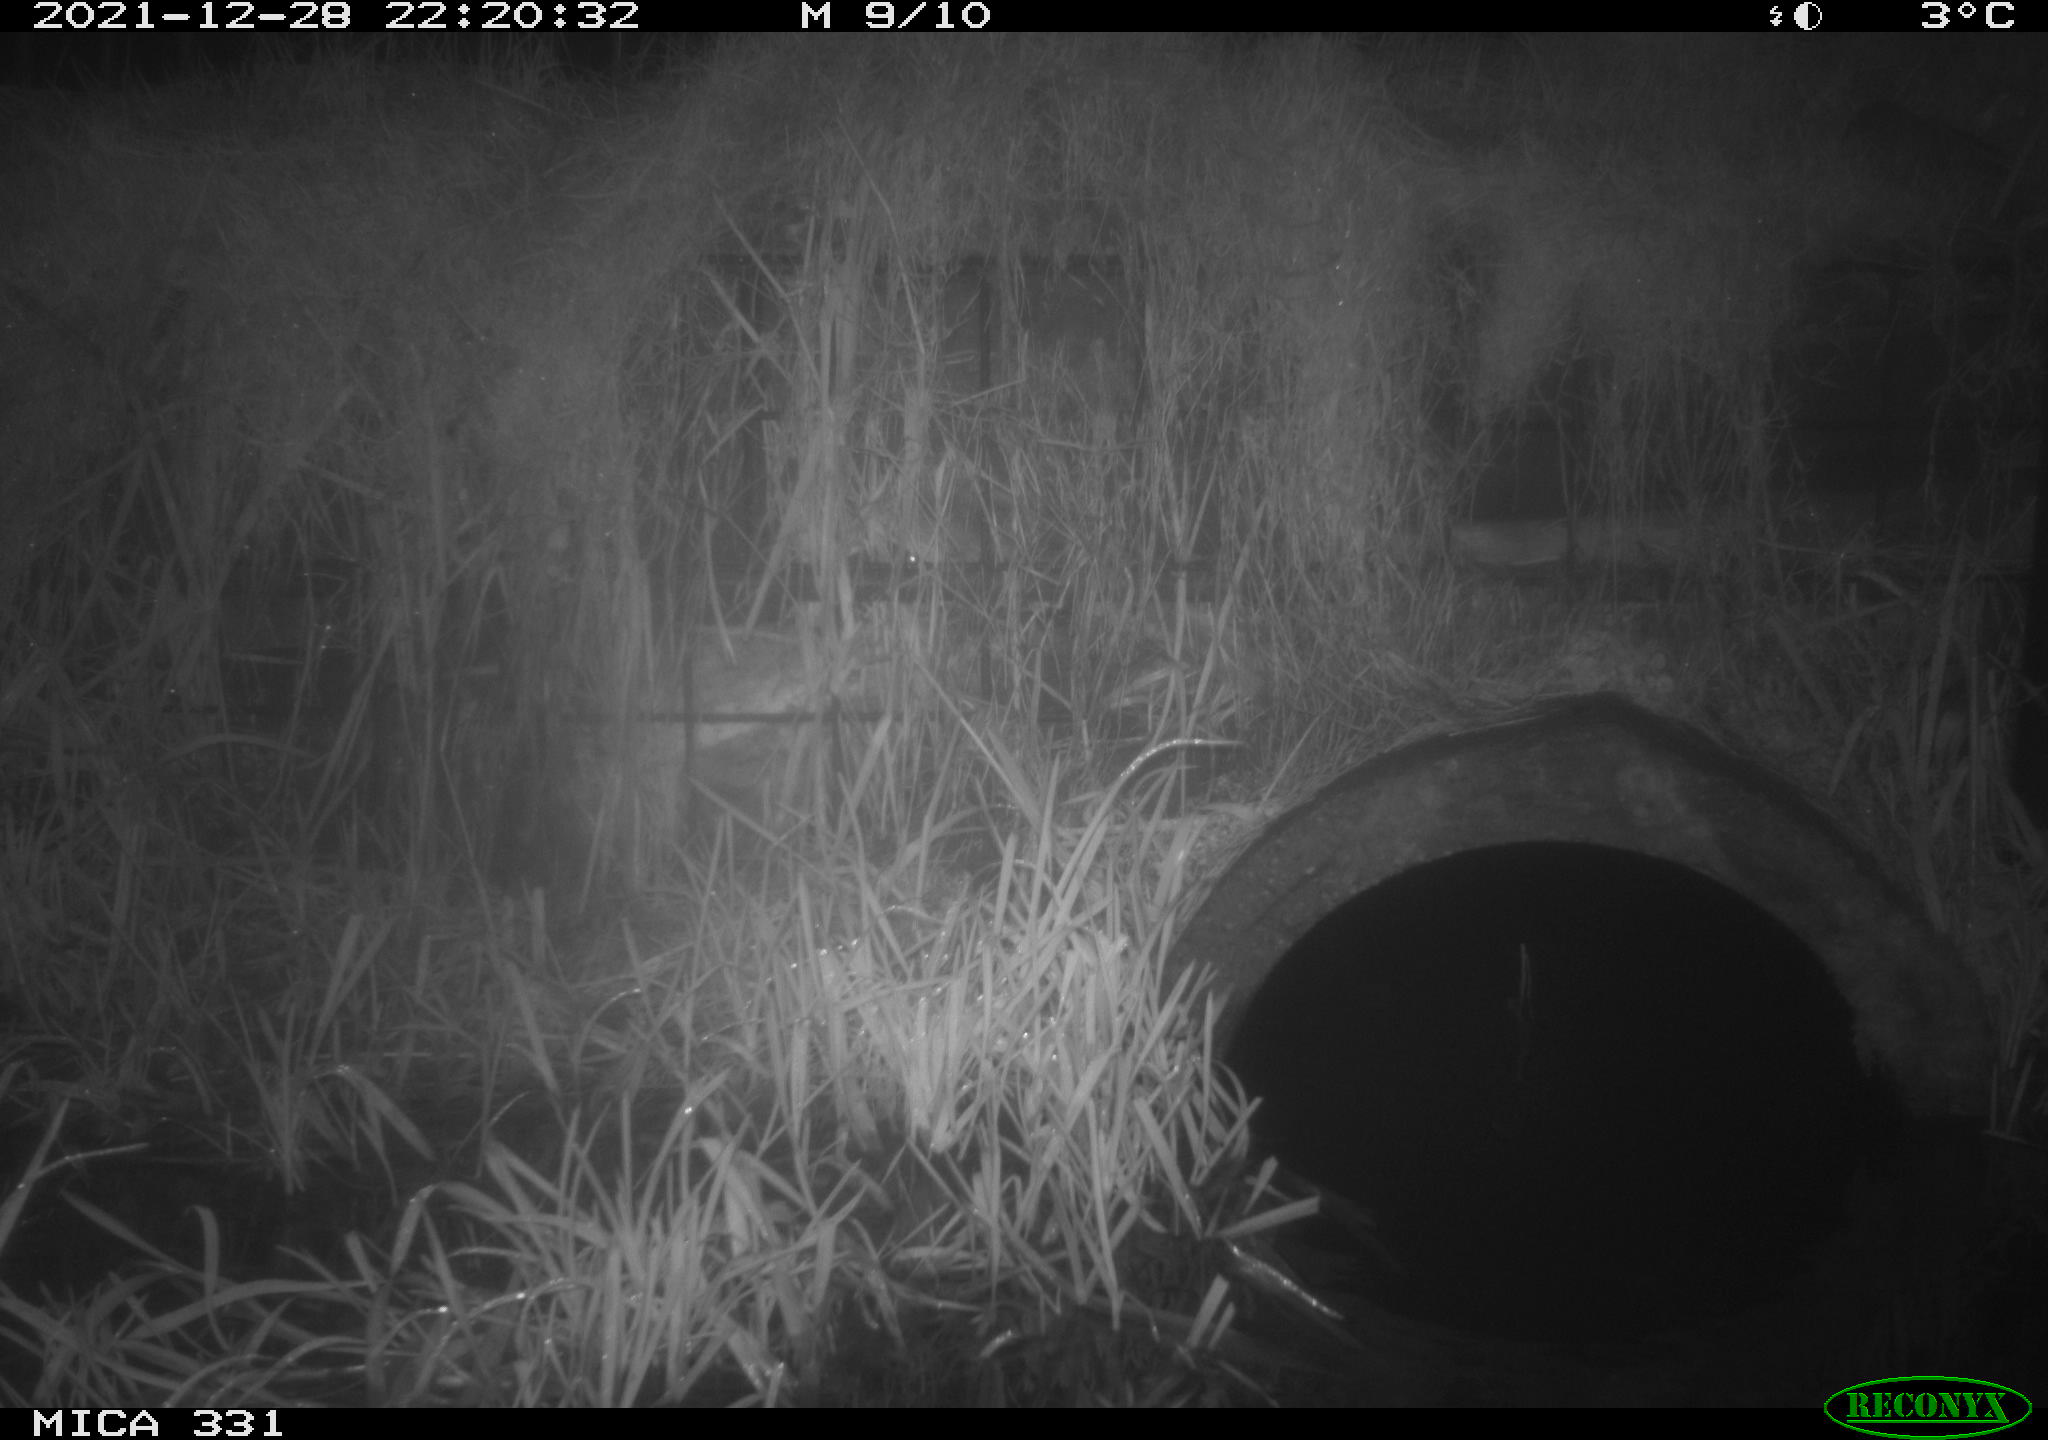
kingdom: Animalia
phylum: Chordata
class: Mammalia
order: Rodentia
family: Muridae
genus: Rattus
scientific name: Rattus norvegicus
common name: Brown rat
